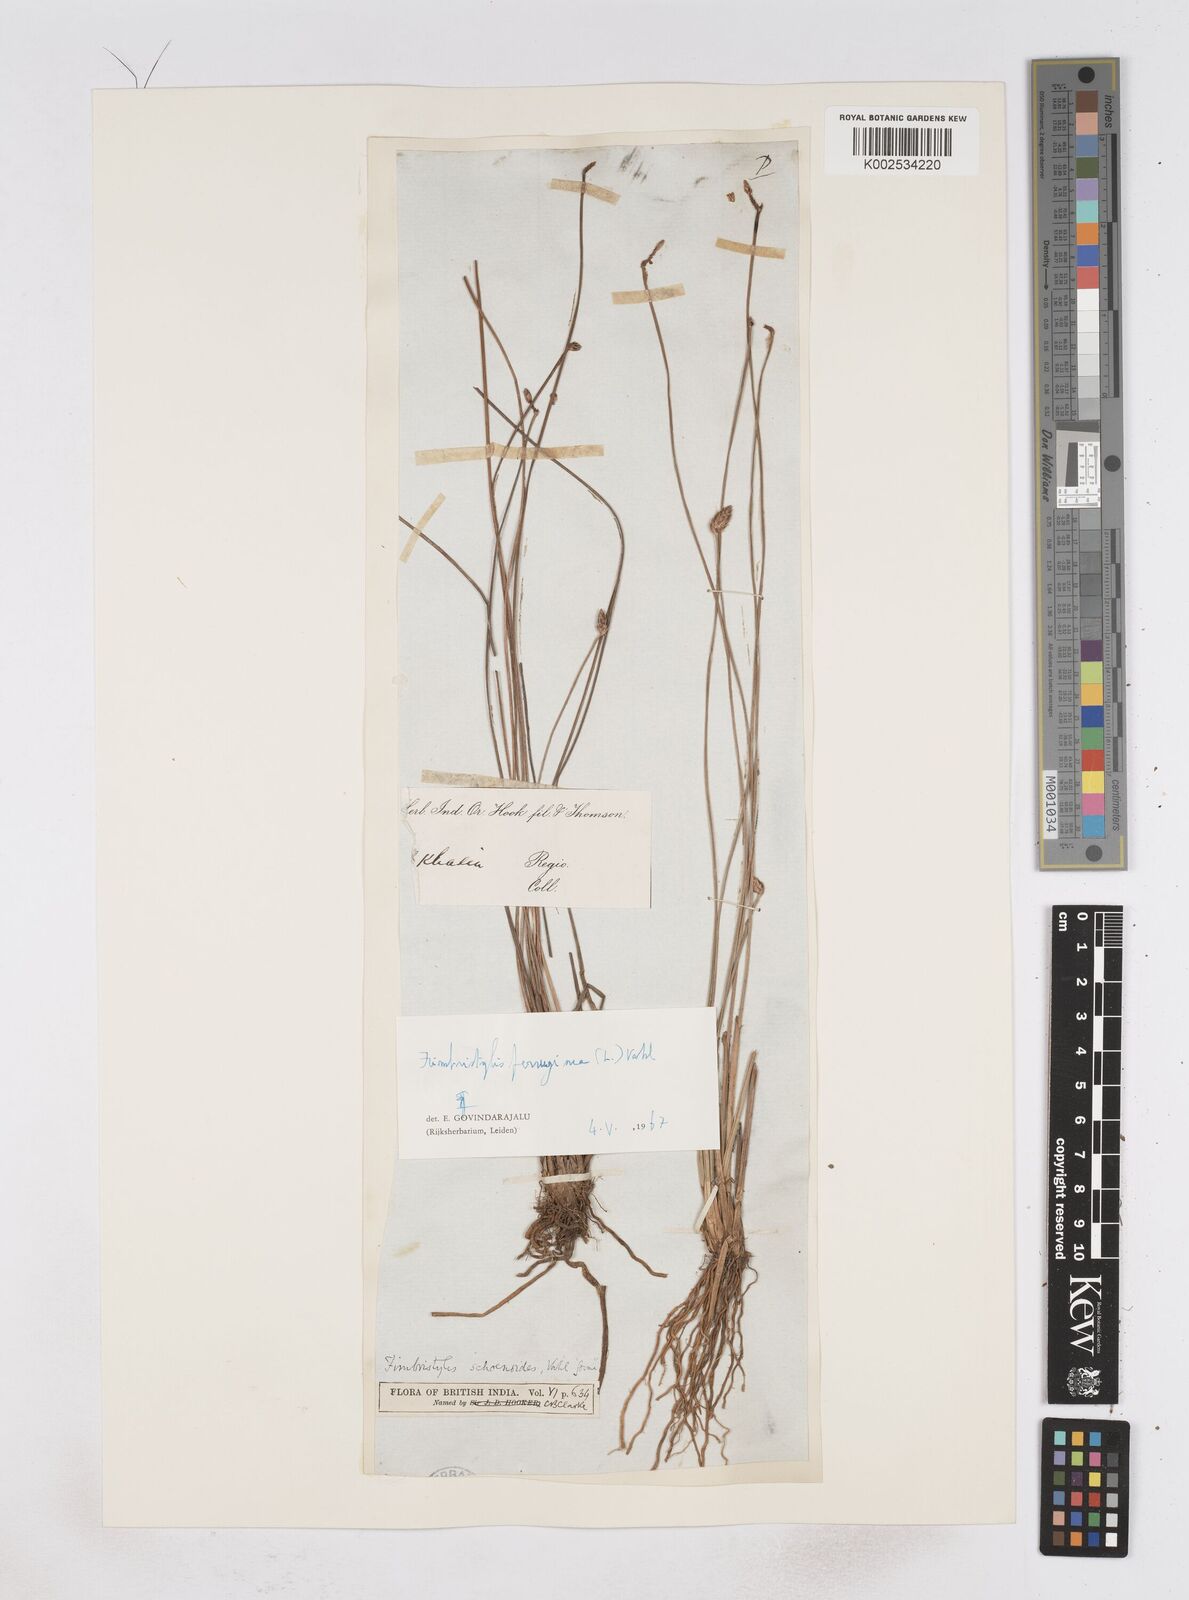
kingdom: Plantae
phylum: Tracheophyta
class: Liliopsida
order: Poales
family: Cyperaceae
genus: Fimbristylis
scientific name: Fimbristylis ferruginea
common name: West indian fimbry
